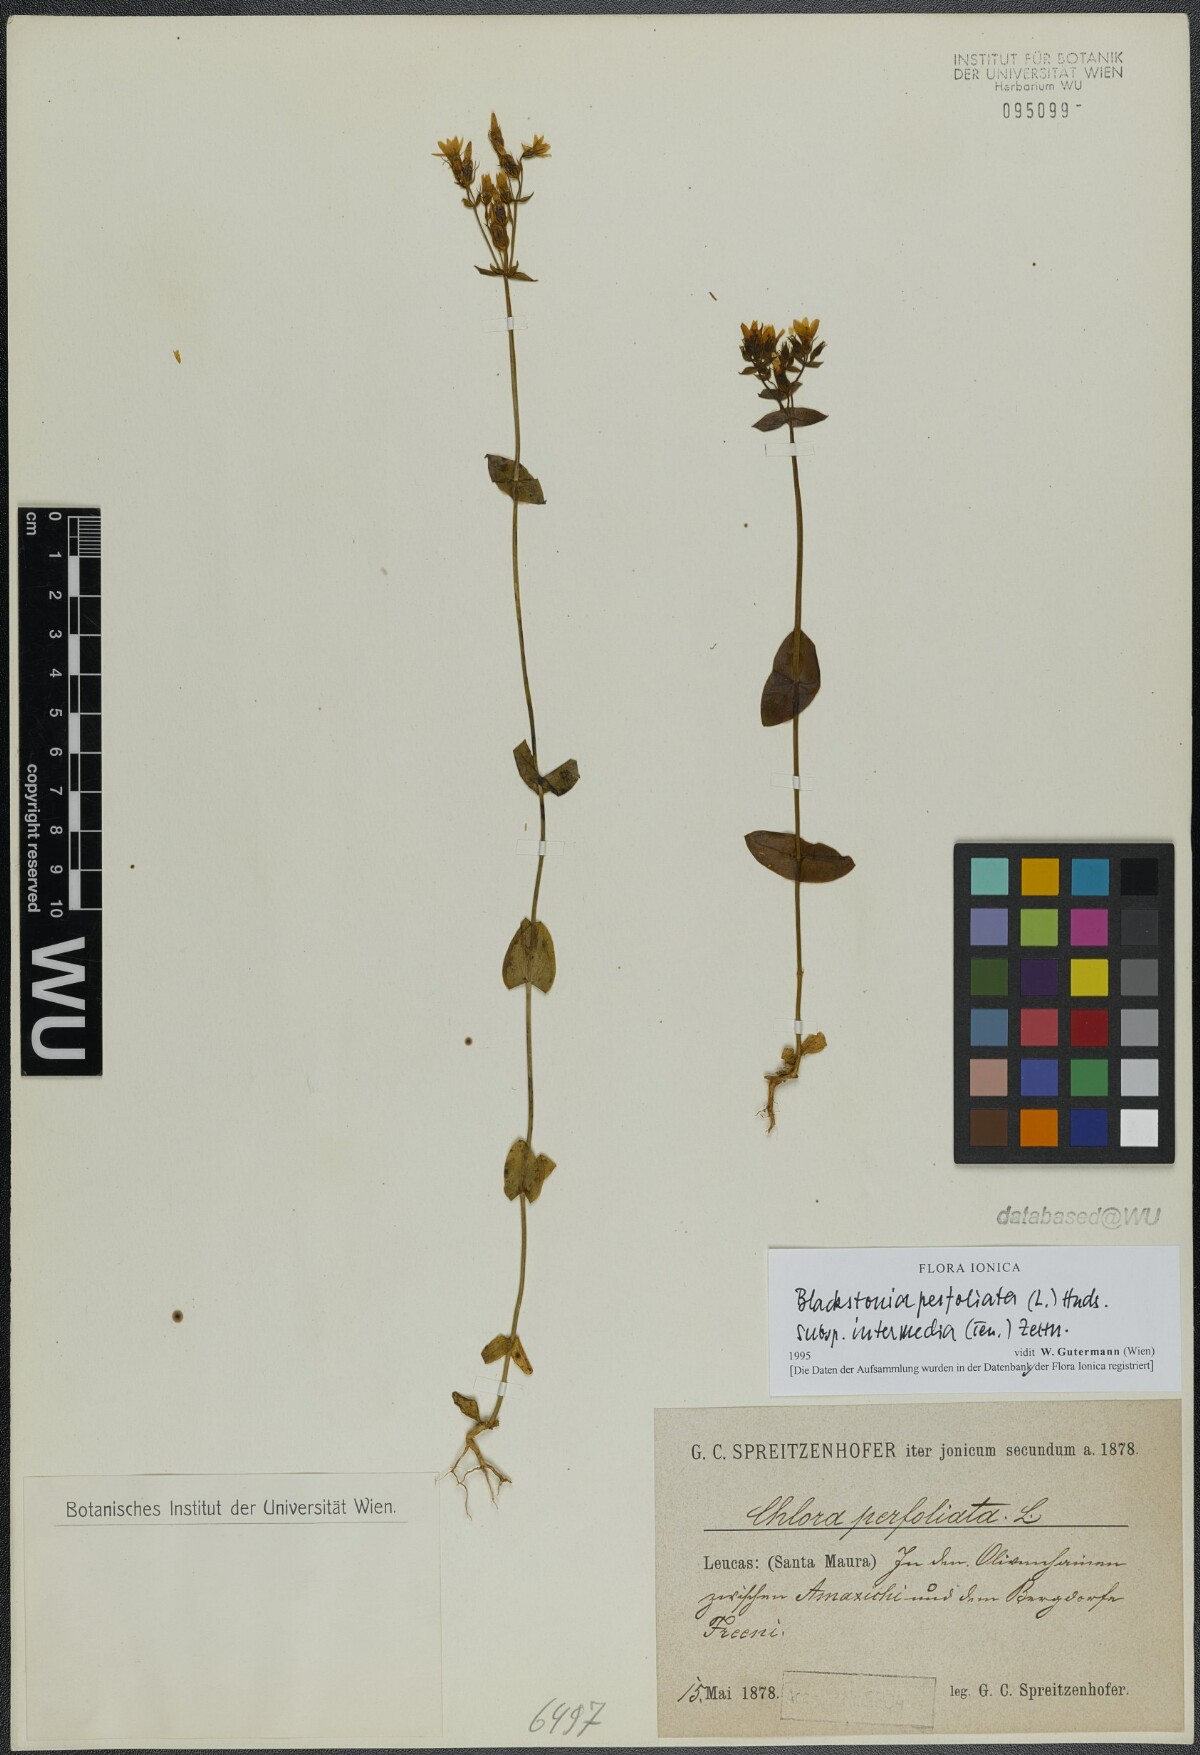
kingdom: Plantae
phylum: Tracheophyta
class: Magnoliopsida
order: Gentianales
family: Gentianaceae
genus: Blackstonia
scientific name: Blackstonia perfoliata
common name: Yellow-wort
